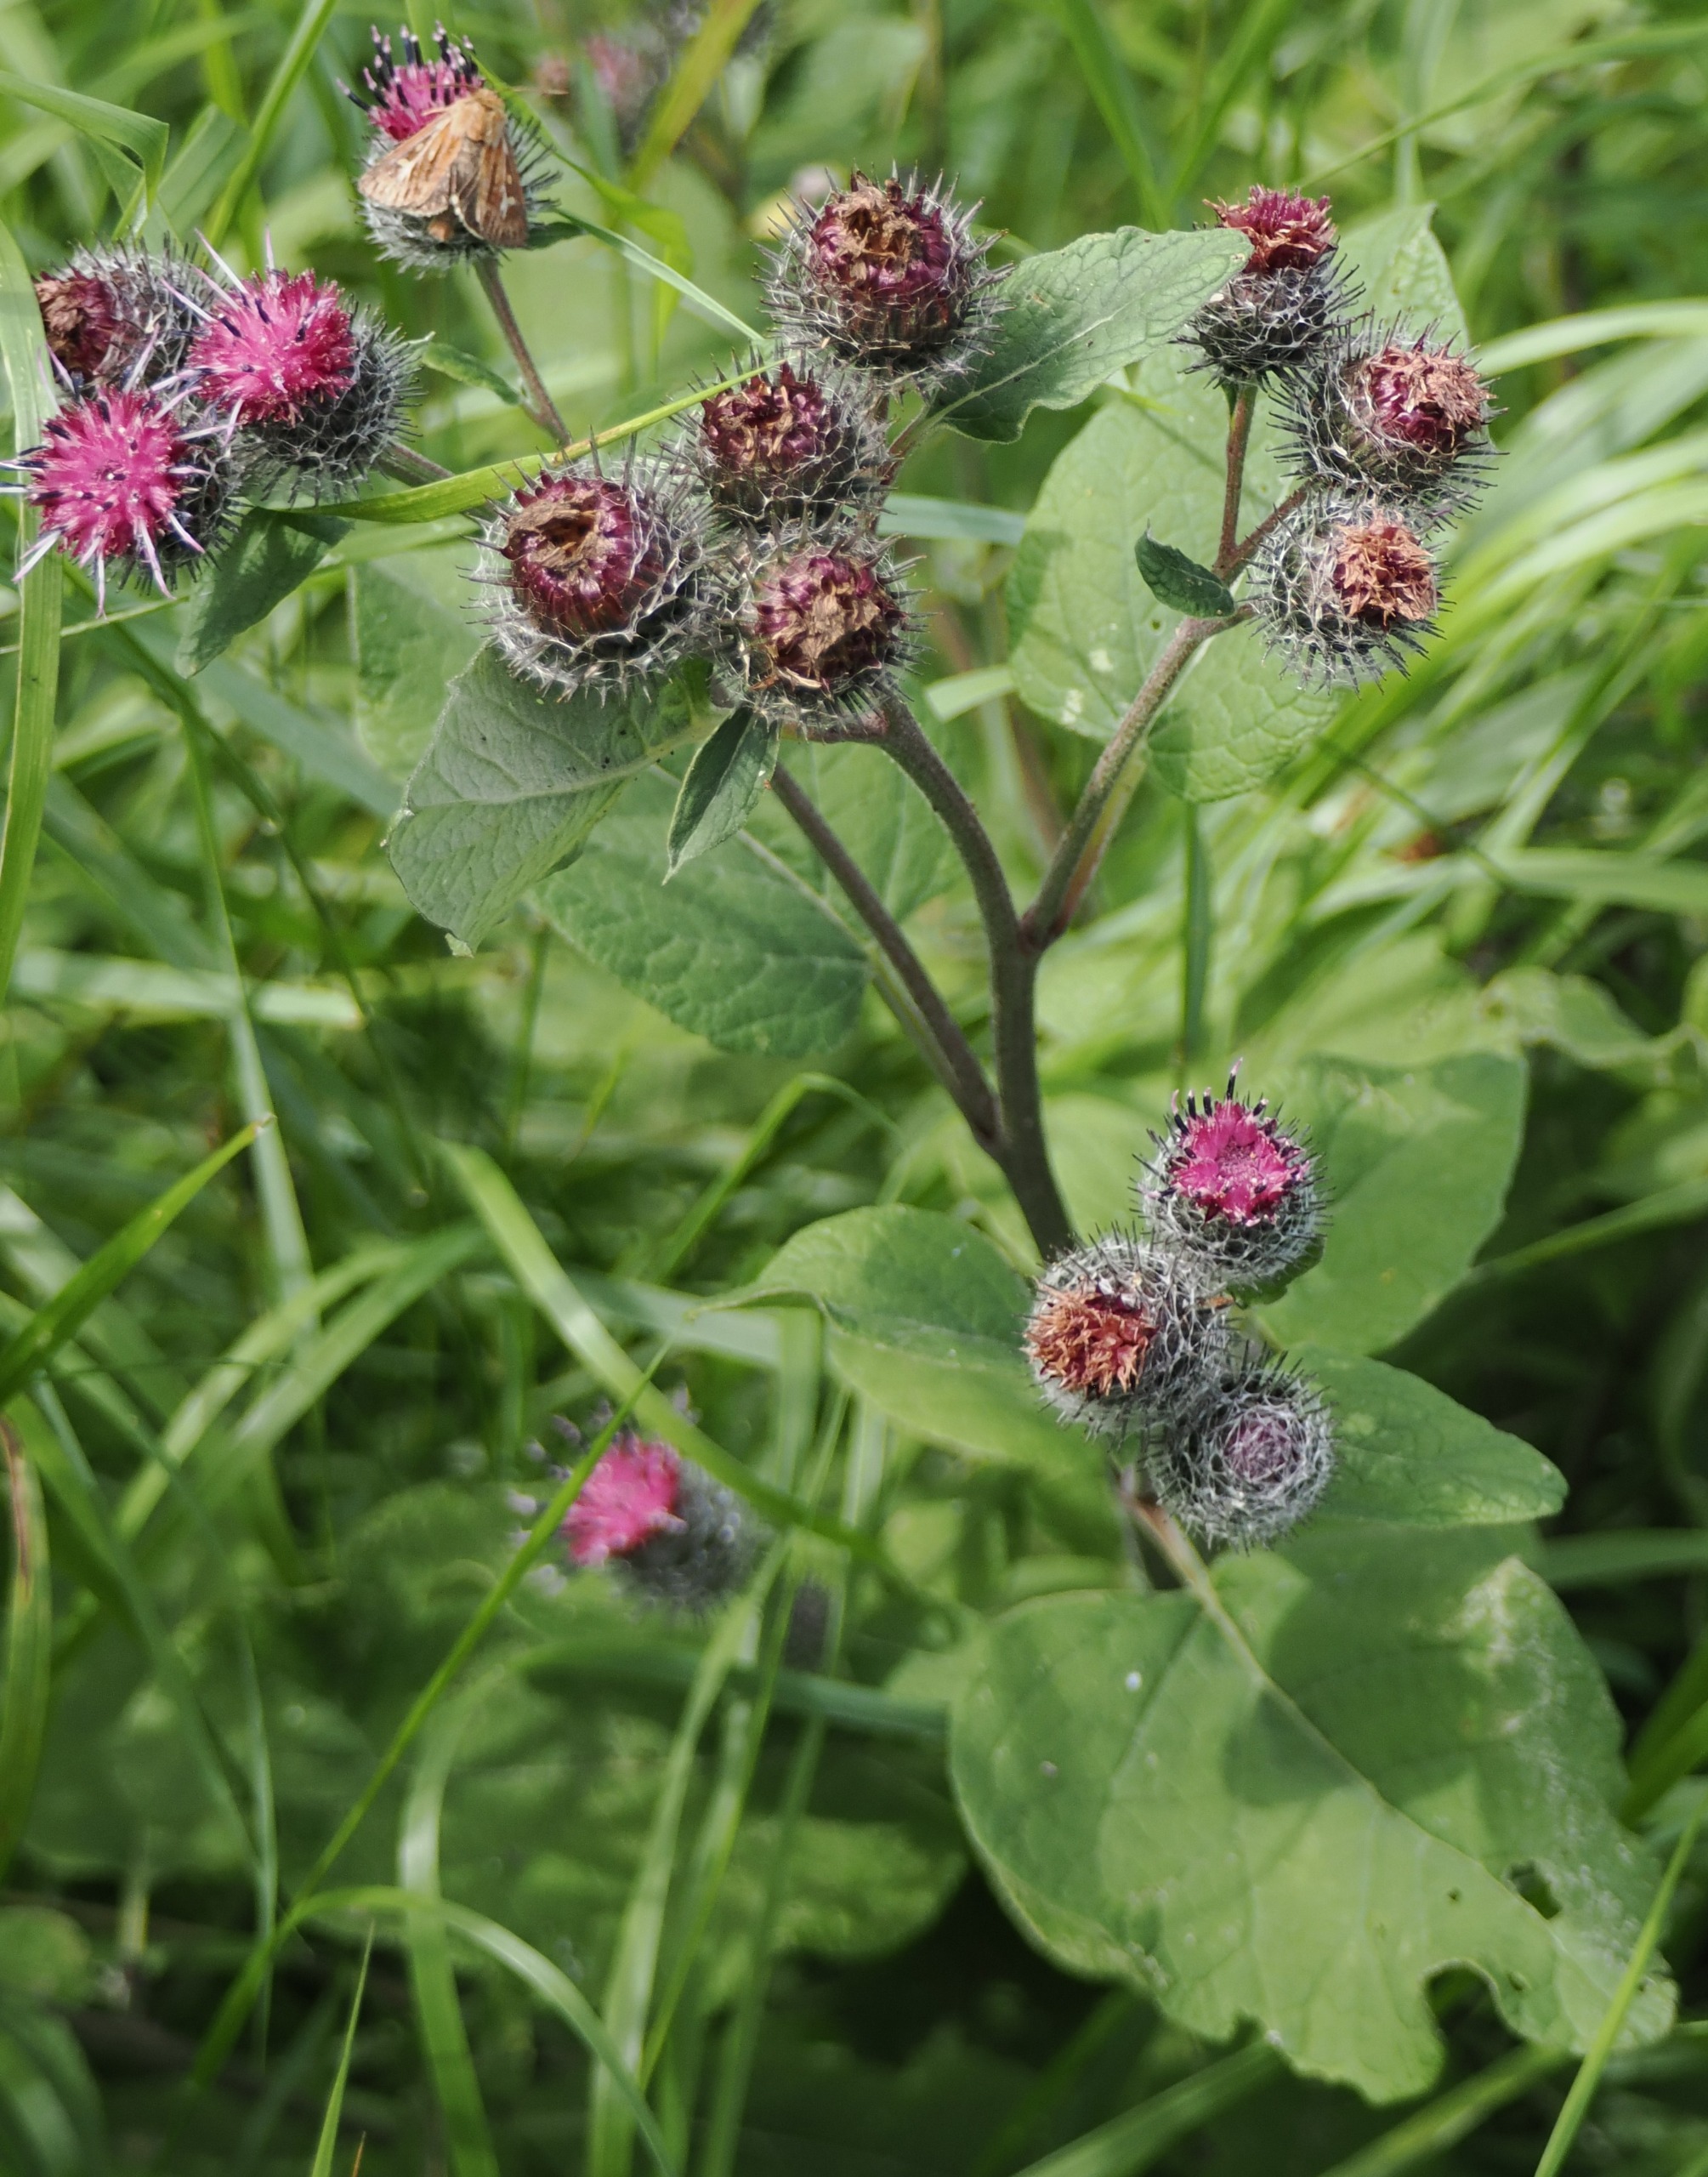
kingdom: Plantae
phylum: Tracheophyta
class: Magnoliopsida
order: Asterales
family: Asteraceae
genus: Arctium
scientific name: Arctium tomentosum
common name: Filtet burre
